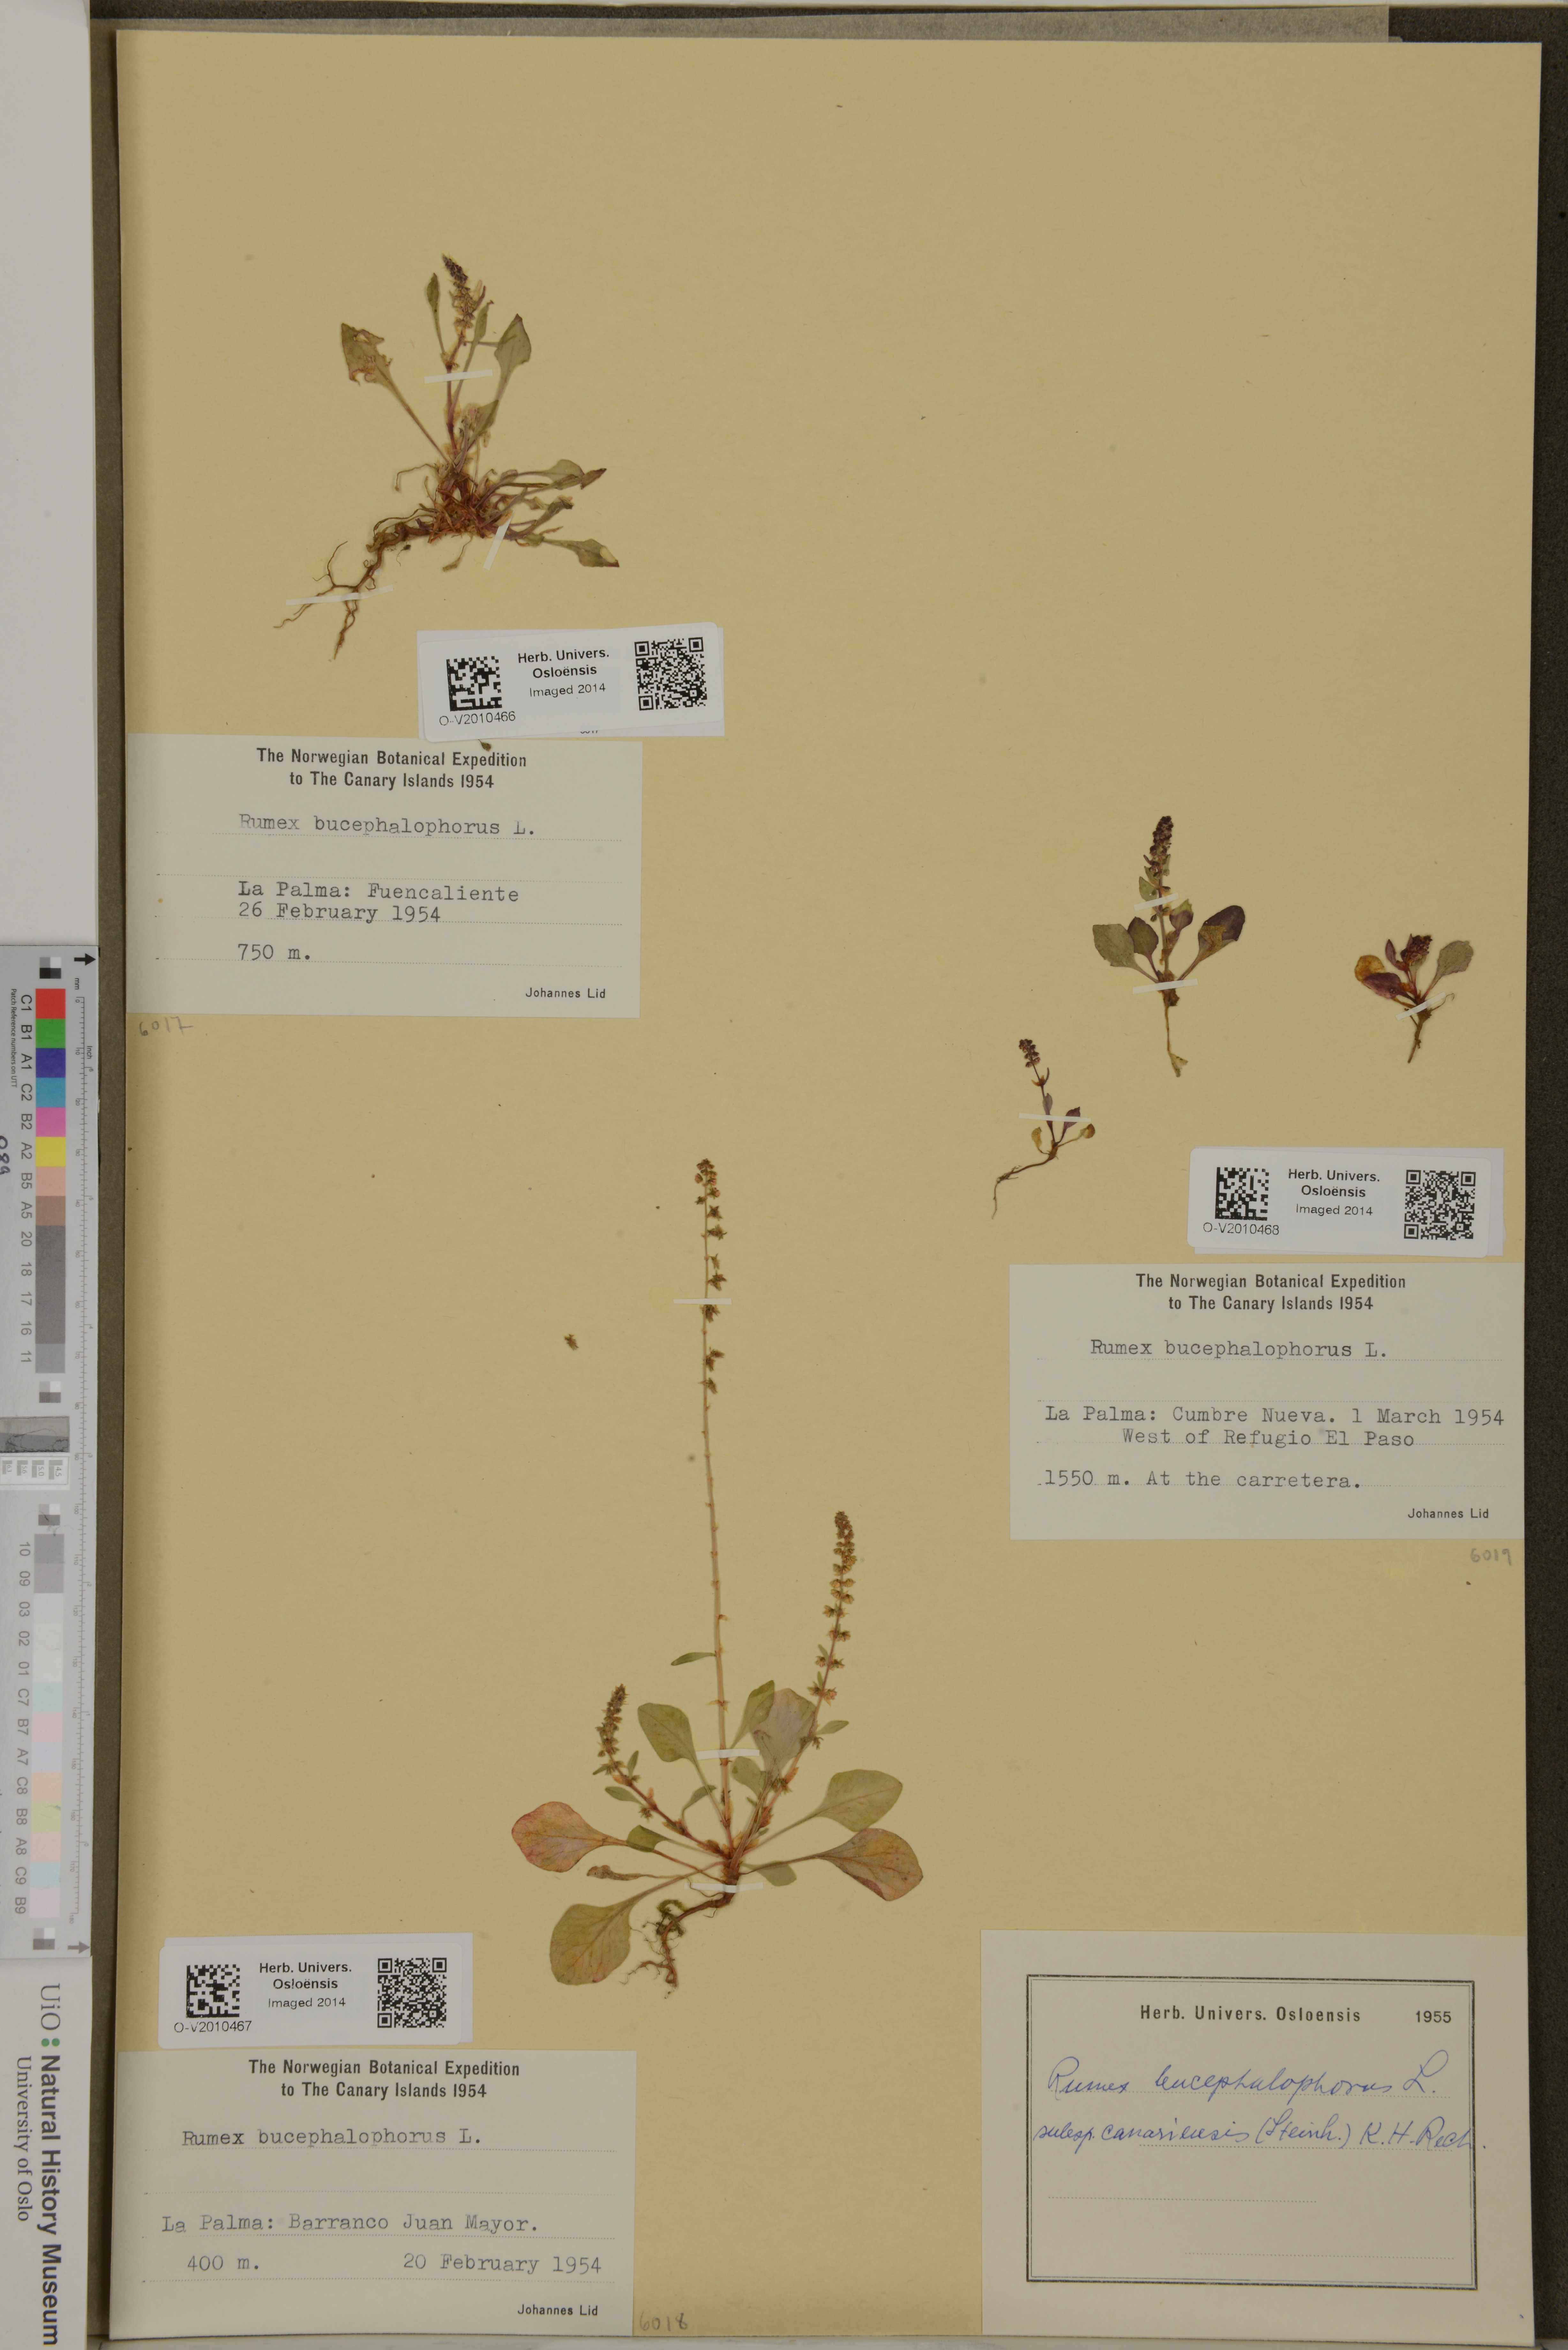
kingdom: Plantae
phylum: Tracheophyta
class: Magnoliopsida
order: Caryophyllales
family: Polygonaceae
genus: Rumex
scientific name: Rumex bucephalophorus
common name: Red dock
